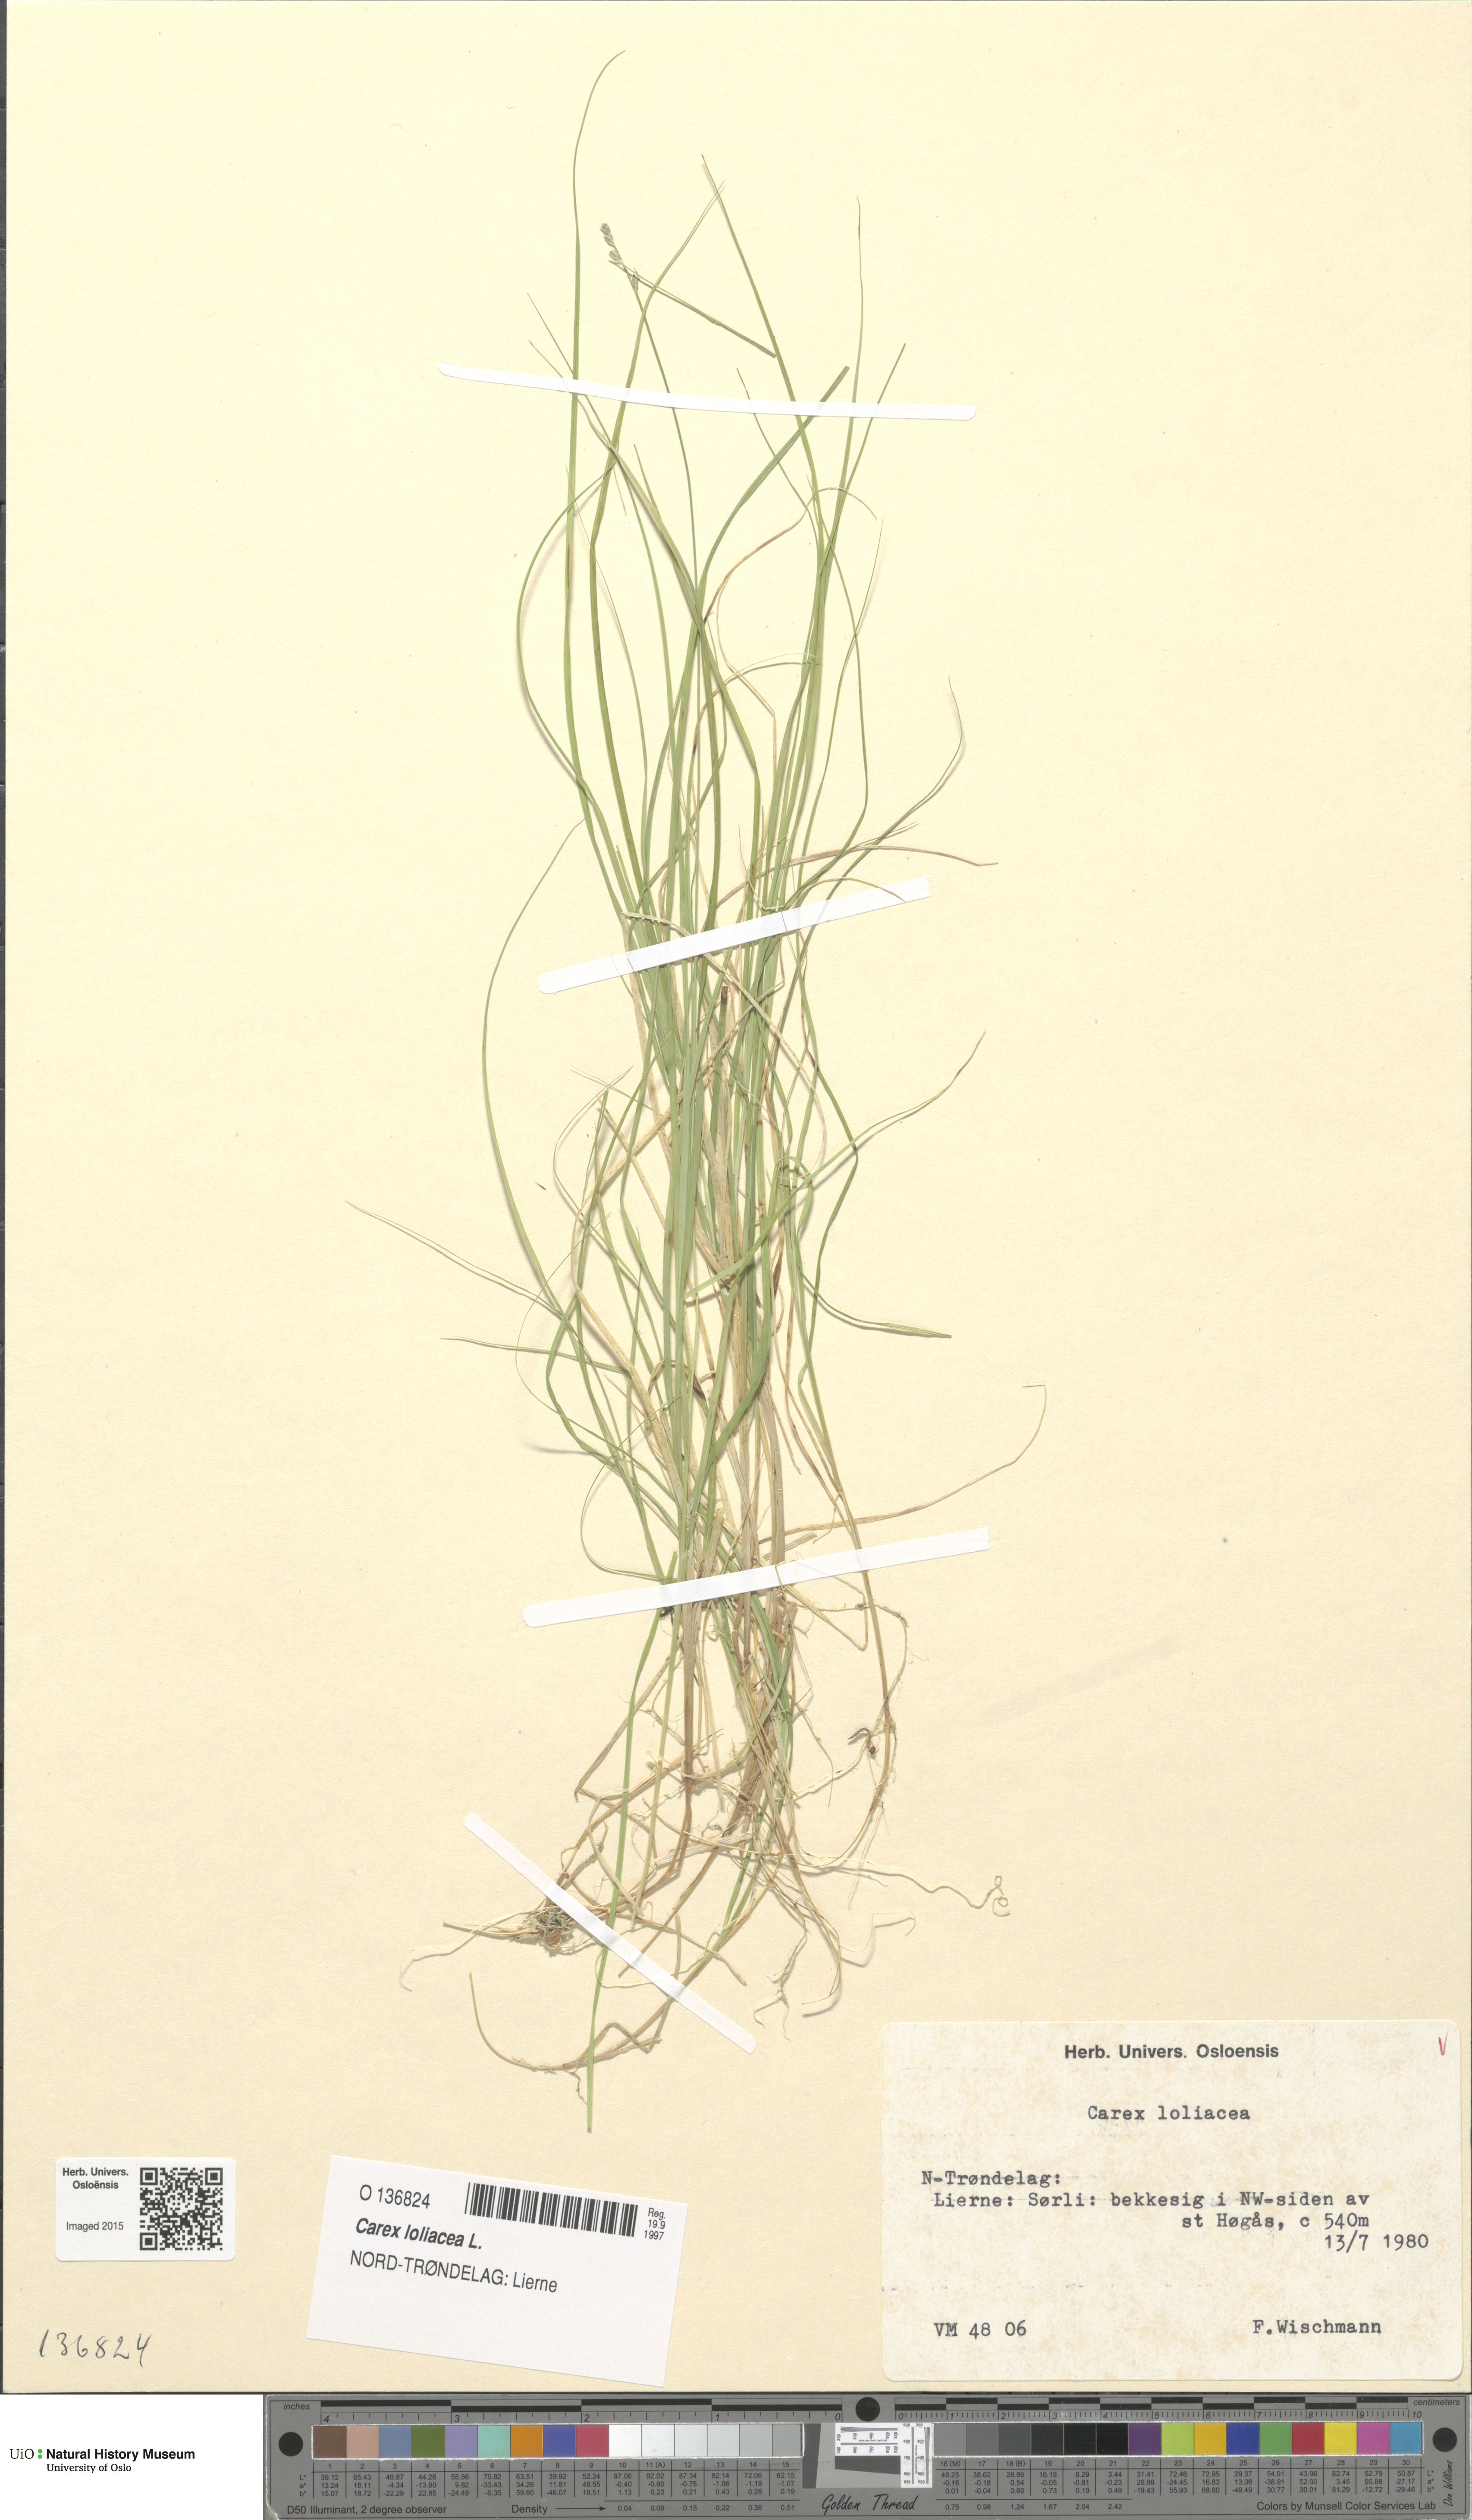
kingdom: Plantae
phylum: Tracheophyta
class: Liliopsida
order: Poales
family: Cyperaceae
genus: Carex
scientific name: Carex loliacea
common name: Ryegrass sedge
